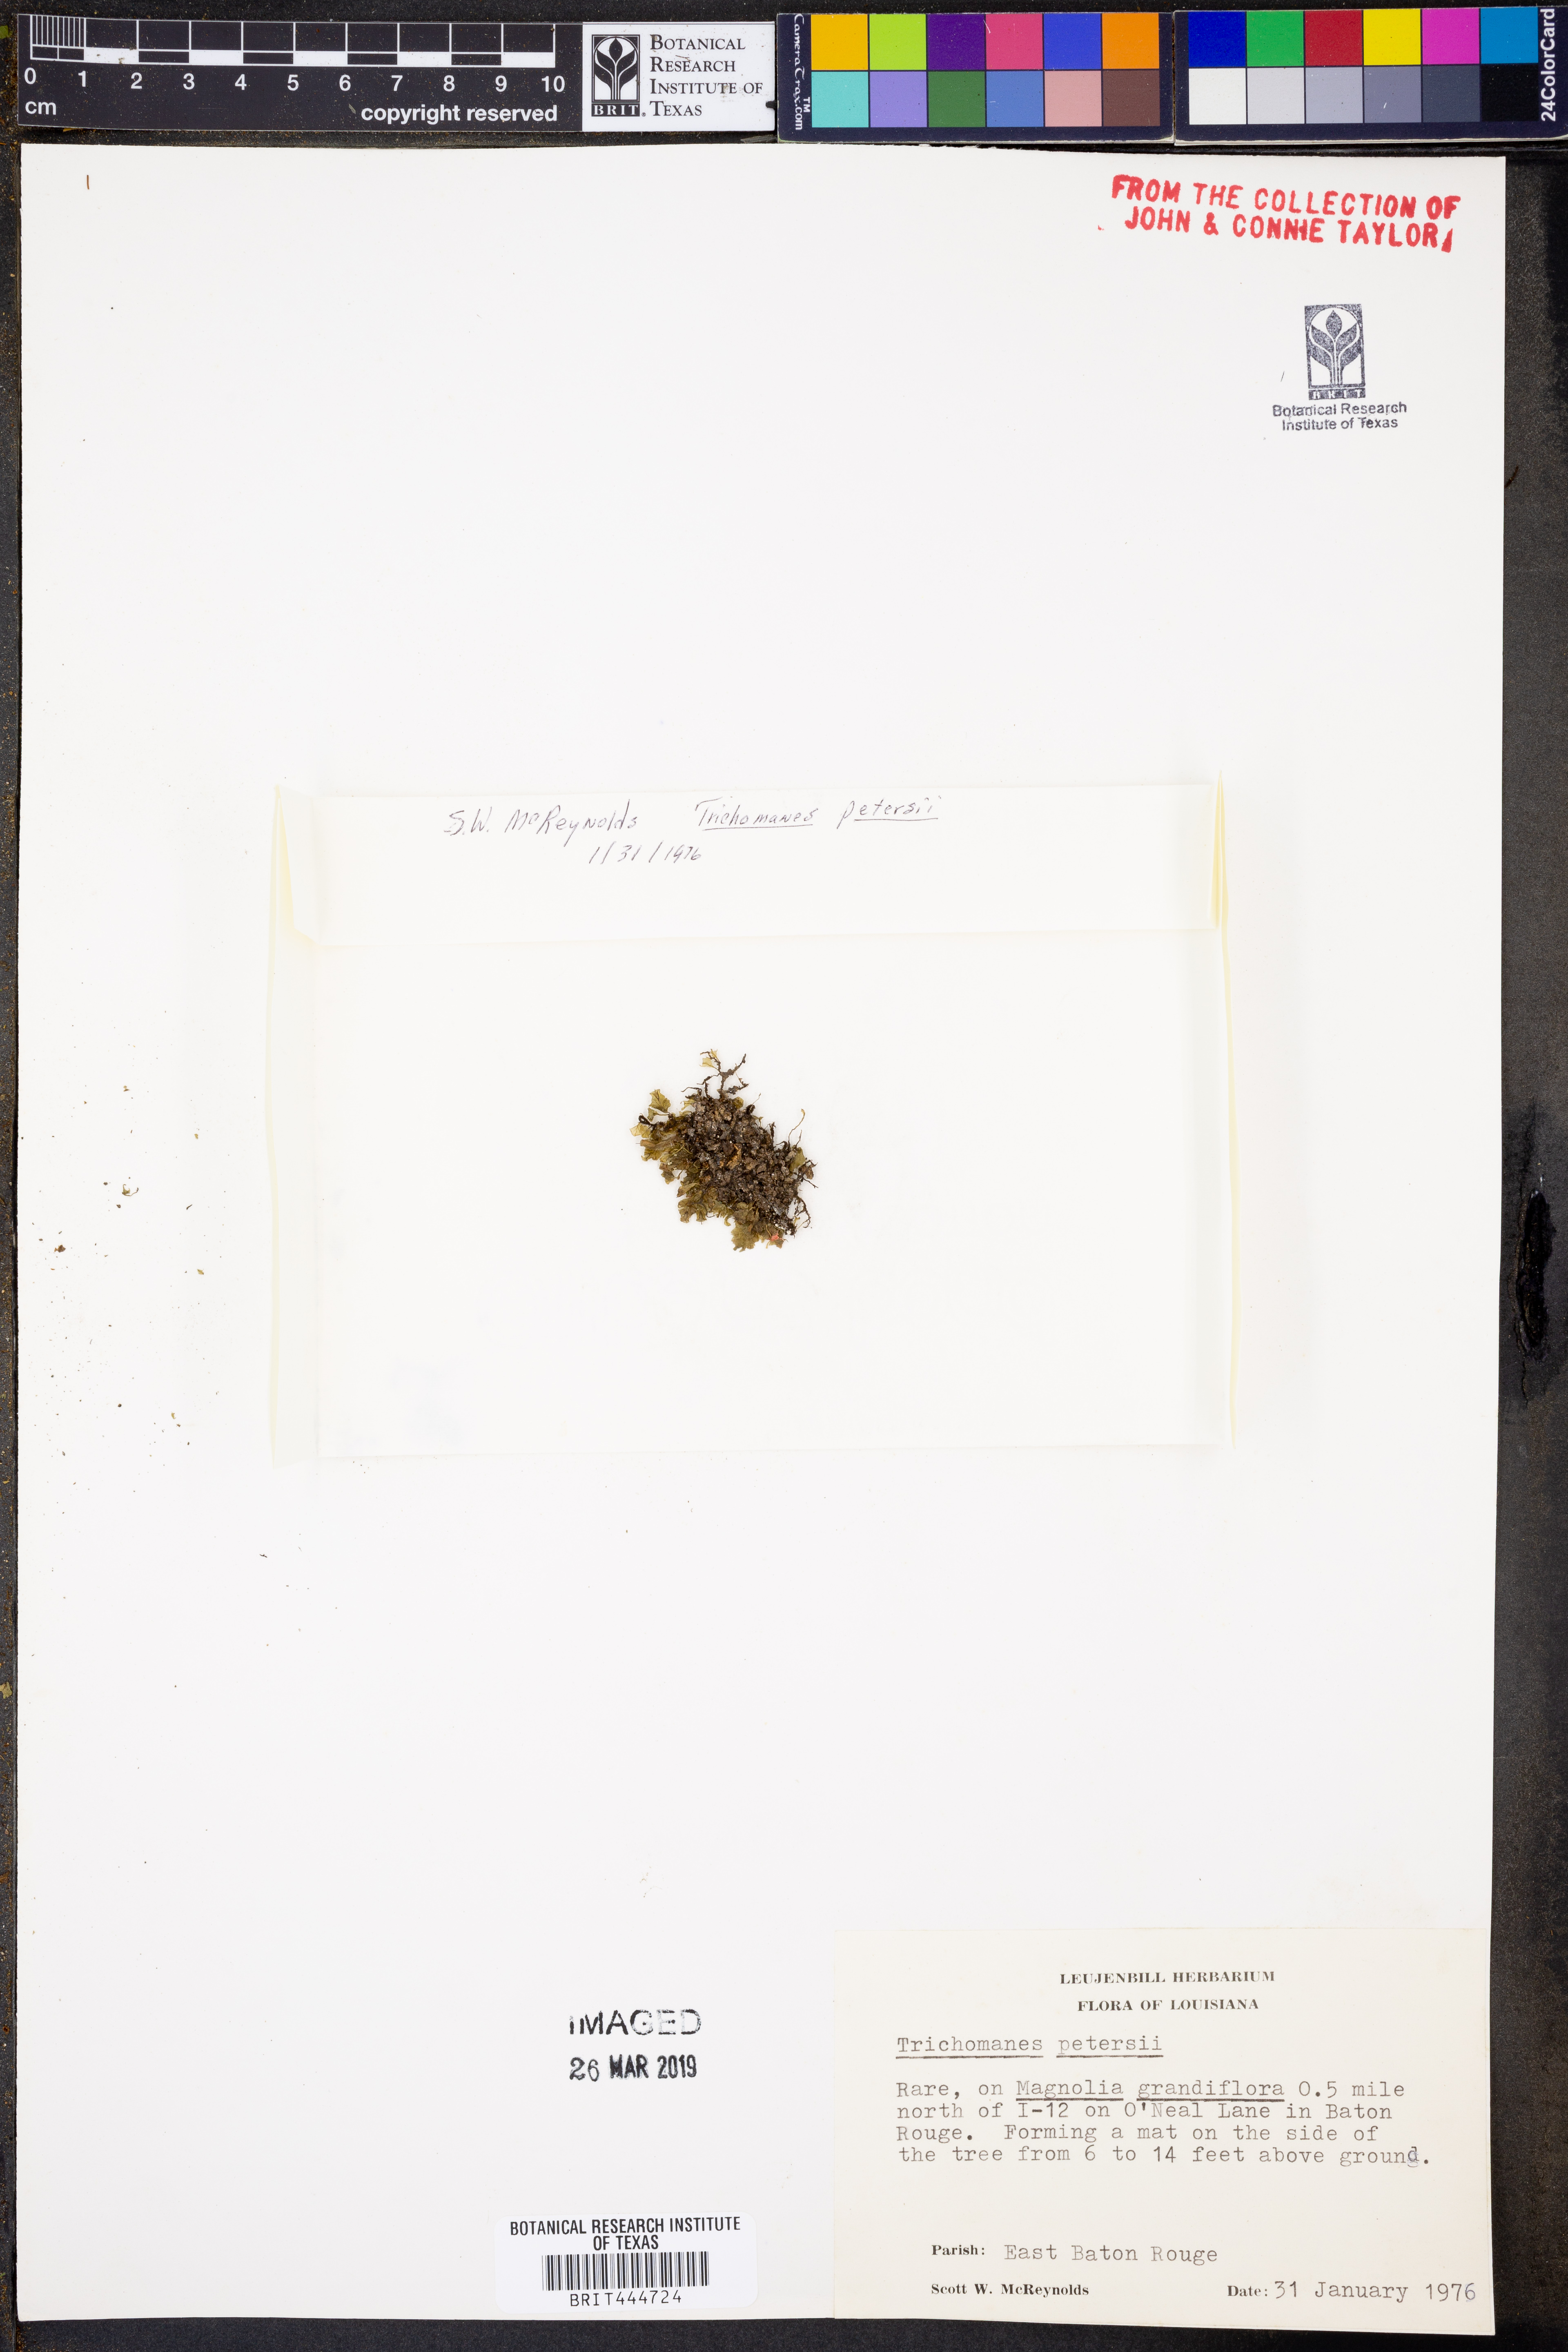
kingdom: Plantae
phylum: Tracheophyta
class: Polypodiopsida
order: Hymenophyllales
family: Hymenophyllaceae
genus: Didymoglossum
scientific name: Didymoglossum petersii
